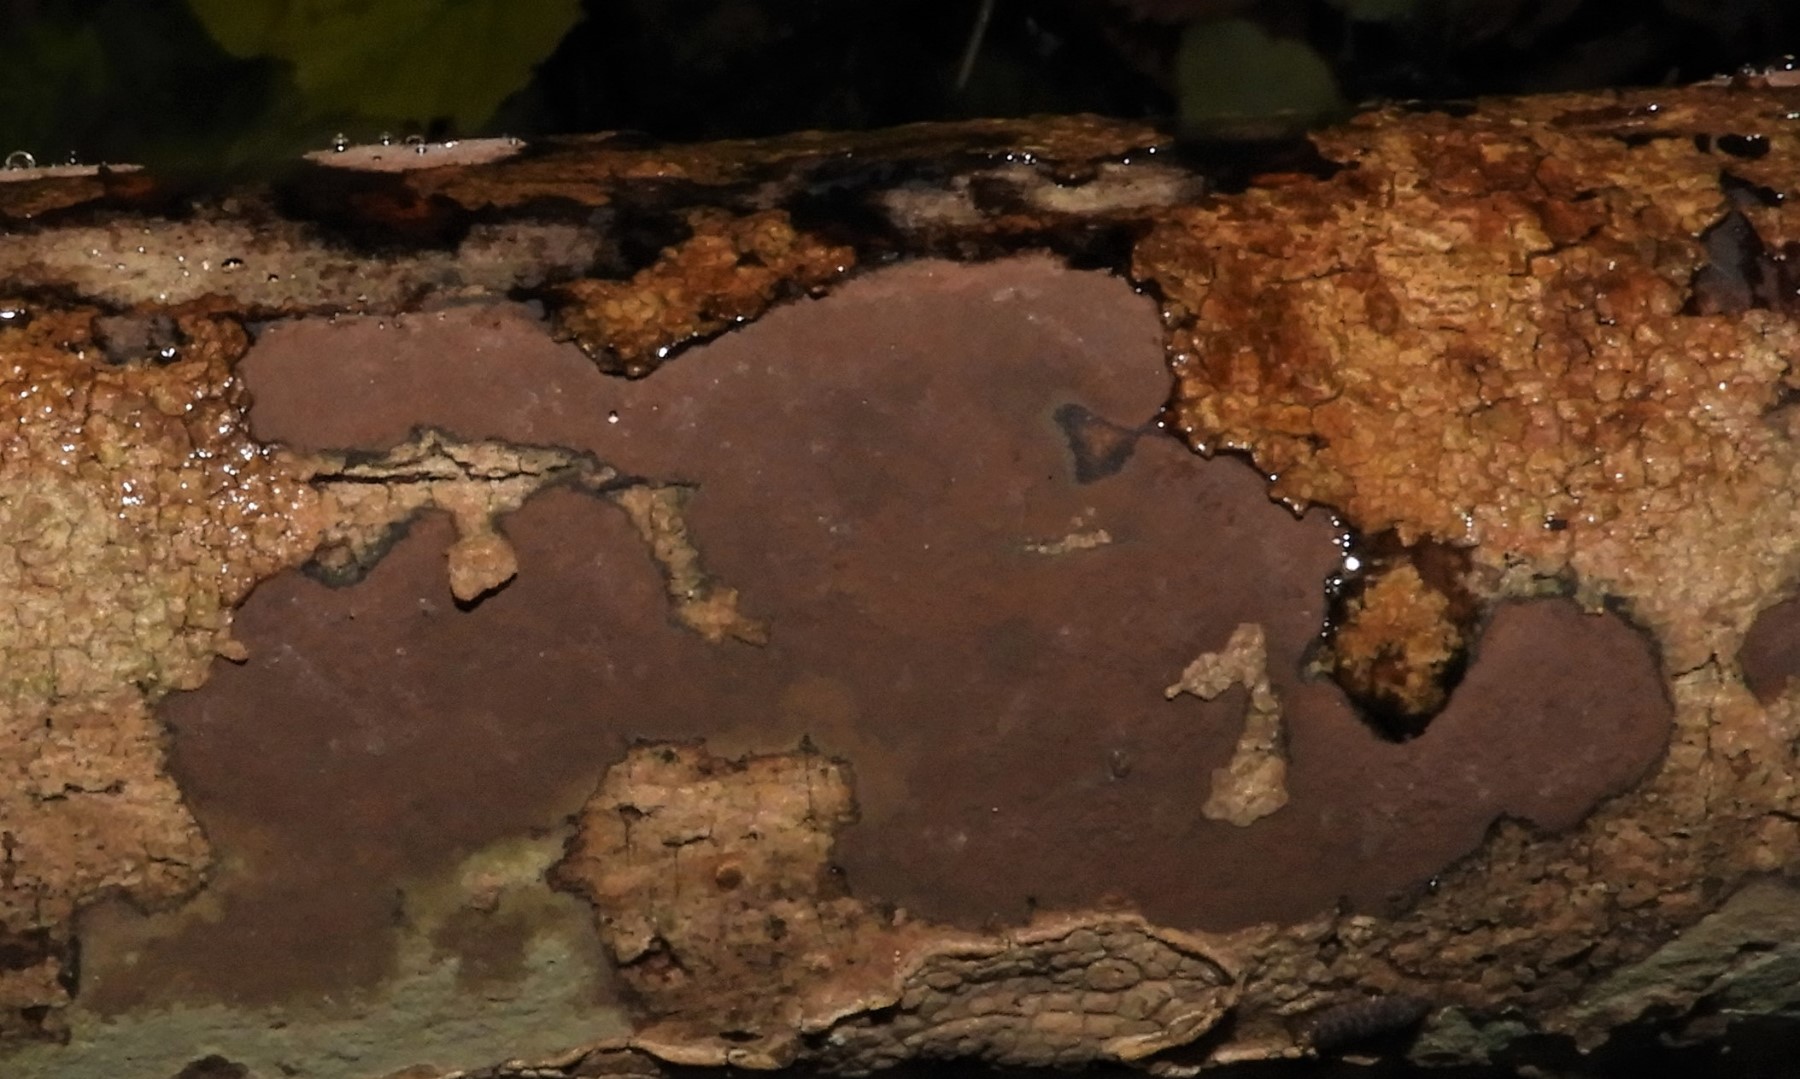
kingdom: Fungi
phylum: Ascomycota
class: Sordariomycetes
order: Xylariales
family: Hypoxylaceae
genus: Hypoxylon
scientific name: Hypoxylon petriniae
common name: nedsænket kulbær
